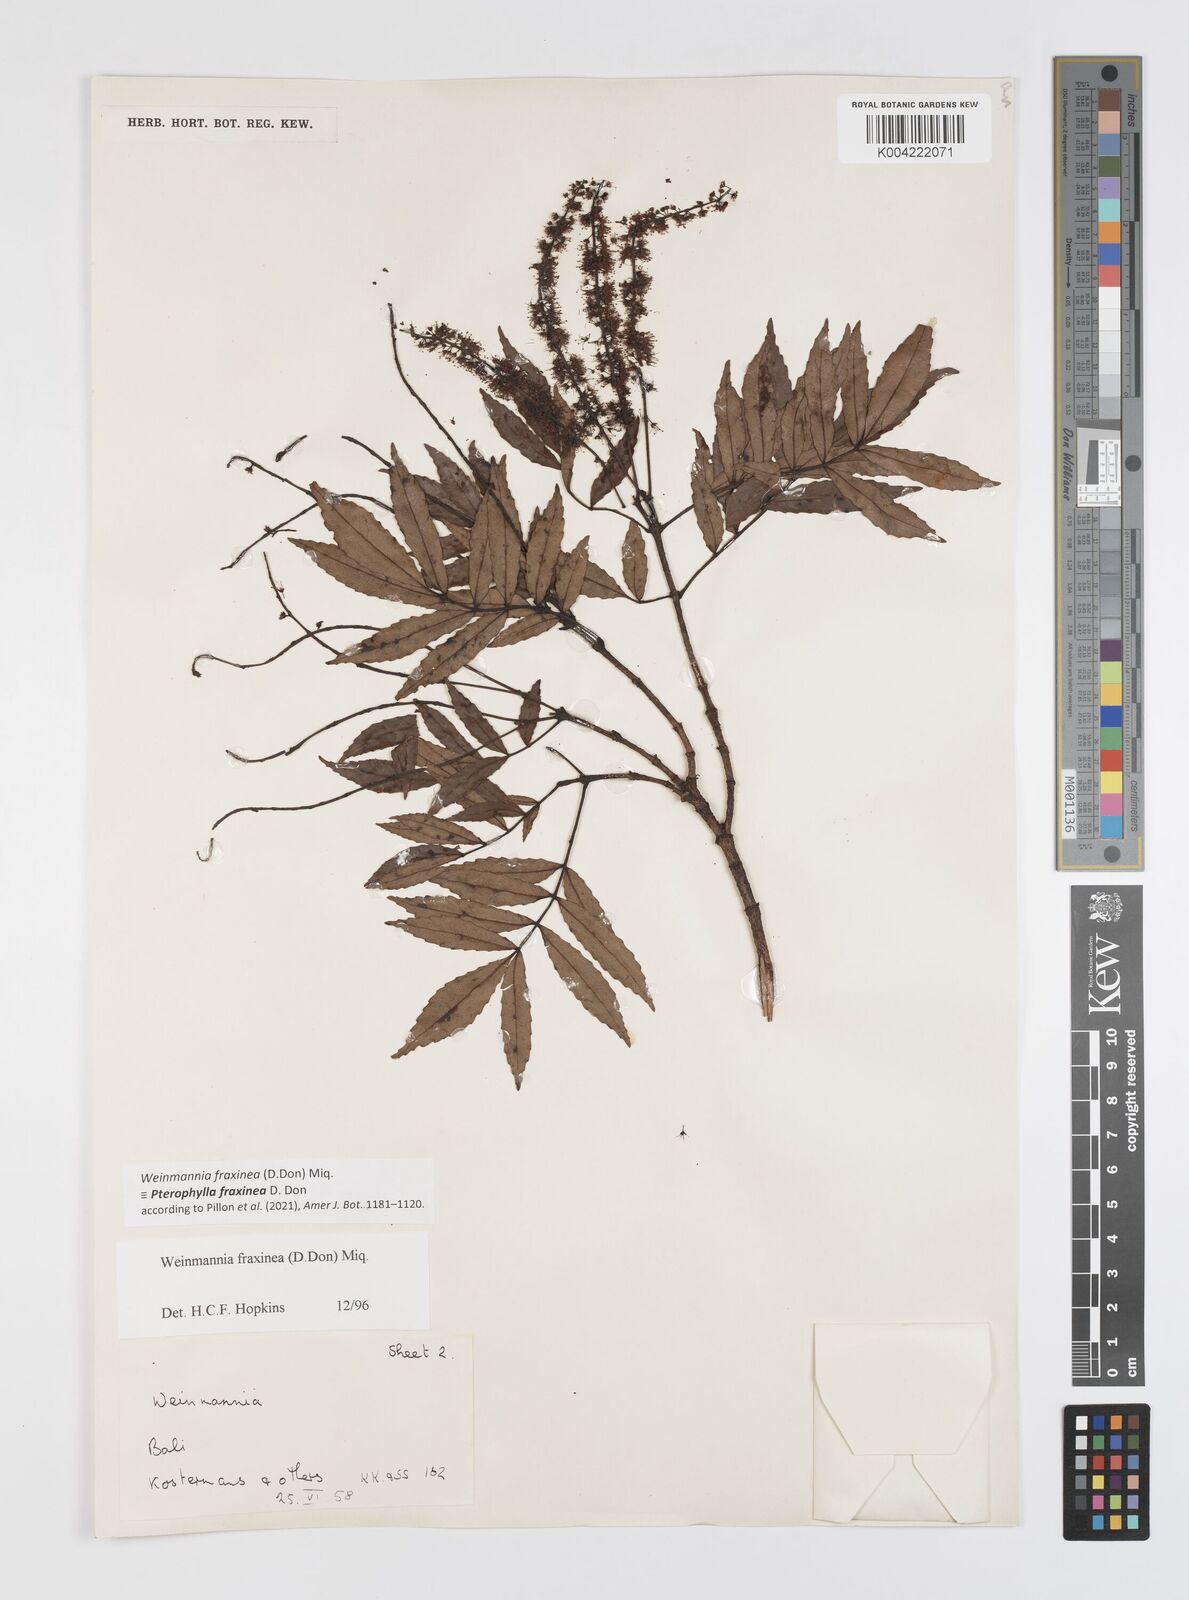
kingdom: Plantae
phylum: Tracheophyta
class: Magnoliopsida
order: Oxalidales
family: Cunoniaceae
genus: Pterophylla
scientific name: Pterophylla fraxinea
